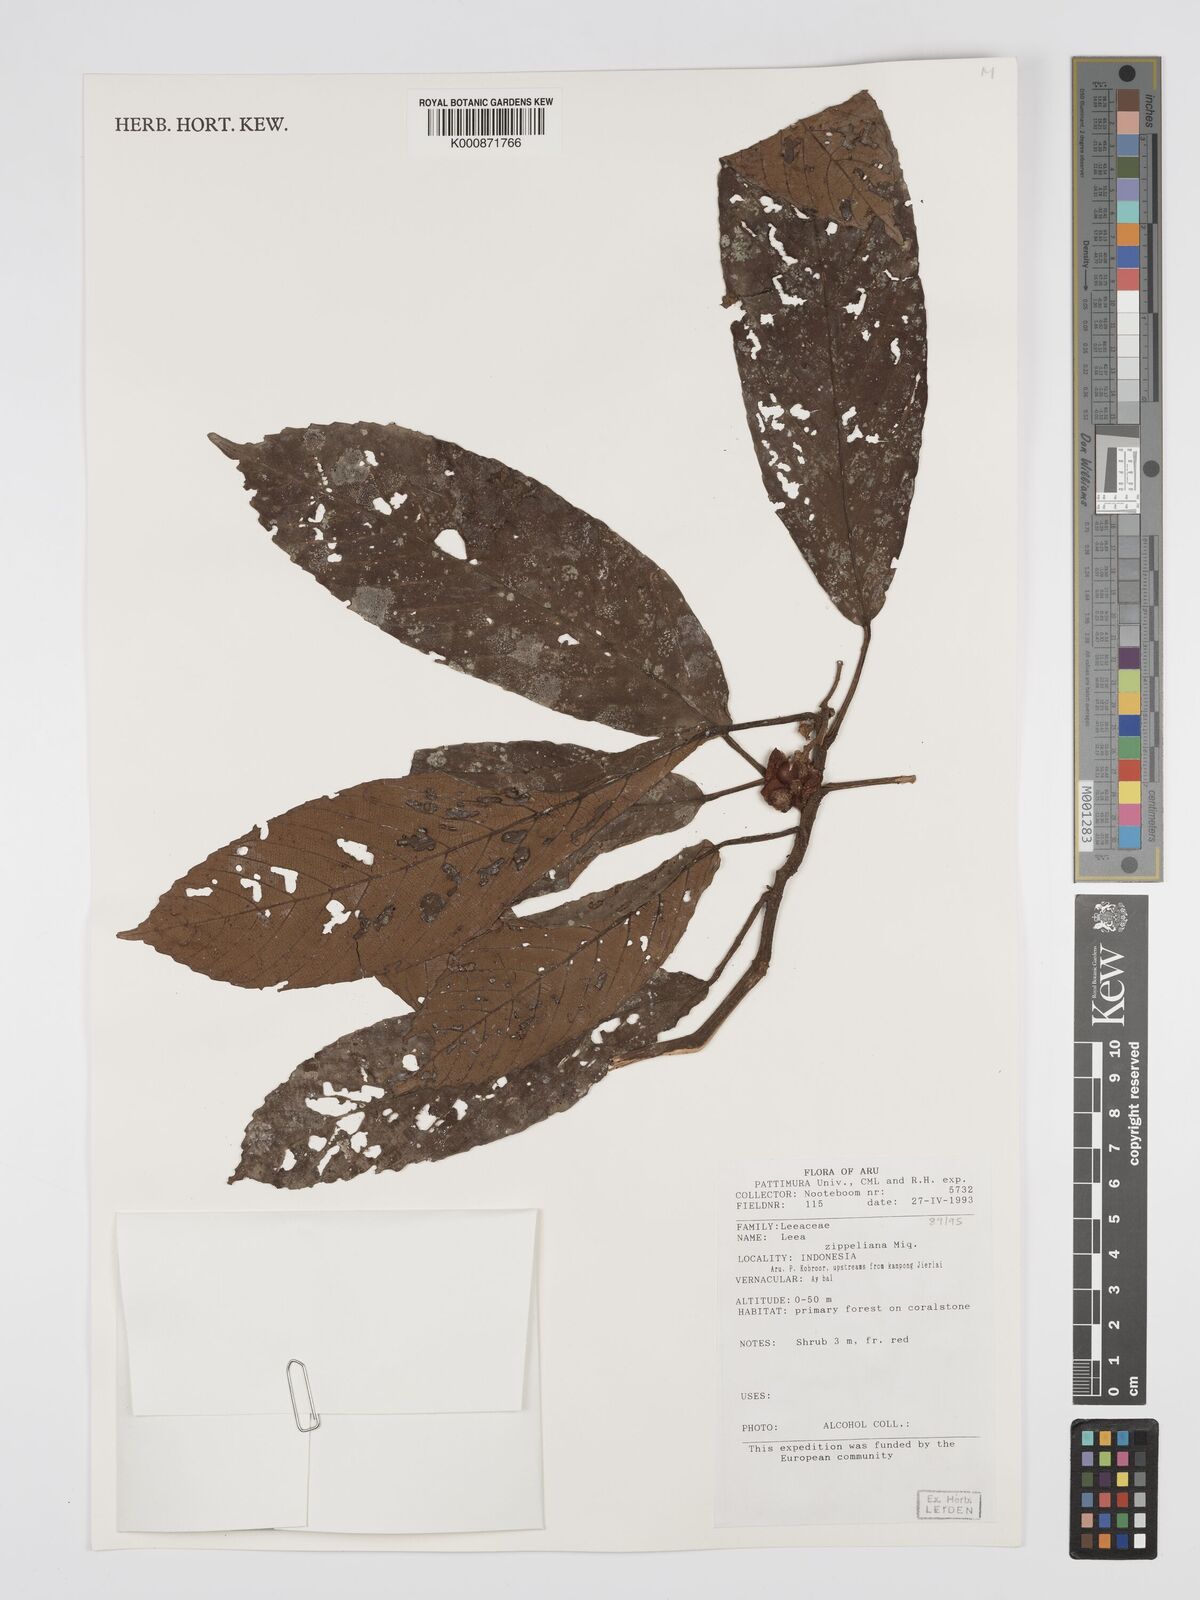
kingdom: Plantae
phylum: Tracheophyta
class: Magnoliopsida
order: Vitales
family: Vitaceae
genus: Leea
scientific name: Leea zippeliana
